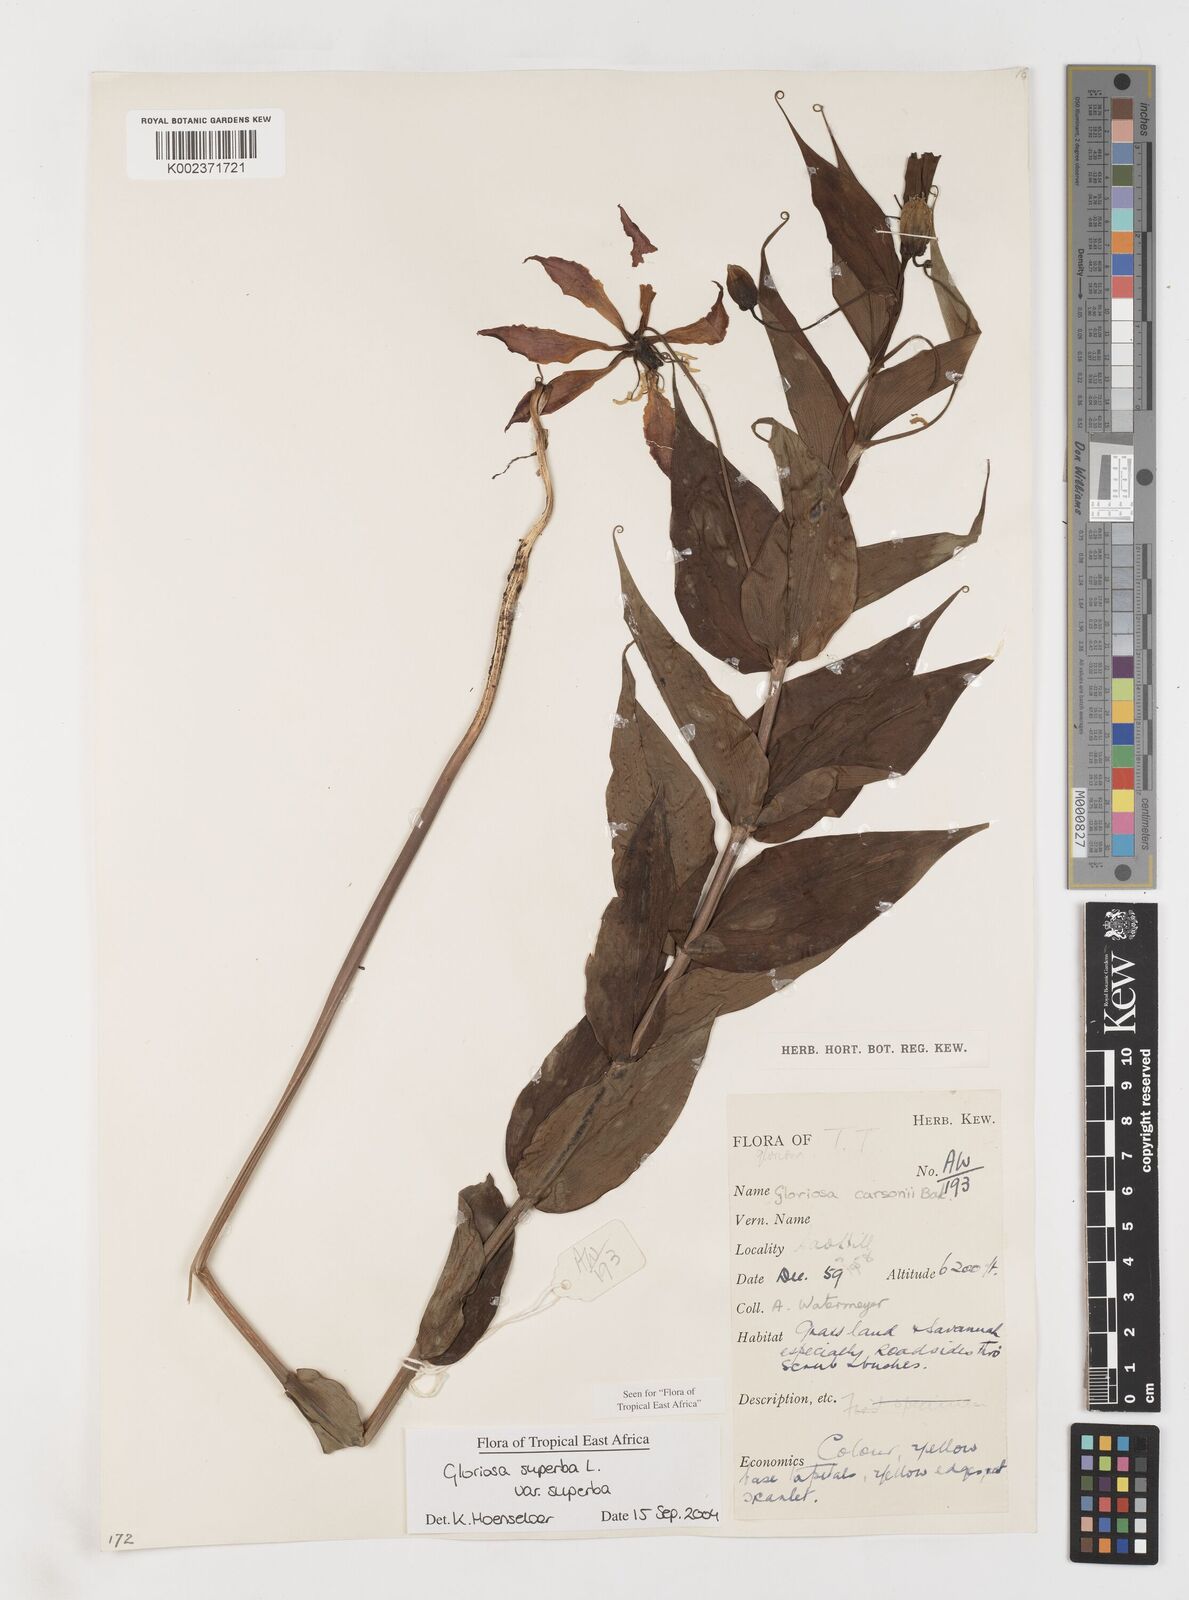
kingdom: Plantae
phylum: Tracheophyta
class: Liliopsida
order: Liliales
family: Colchicaceae
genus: Gloriosa
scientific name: Gloriosa simplex
